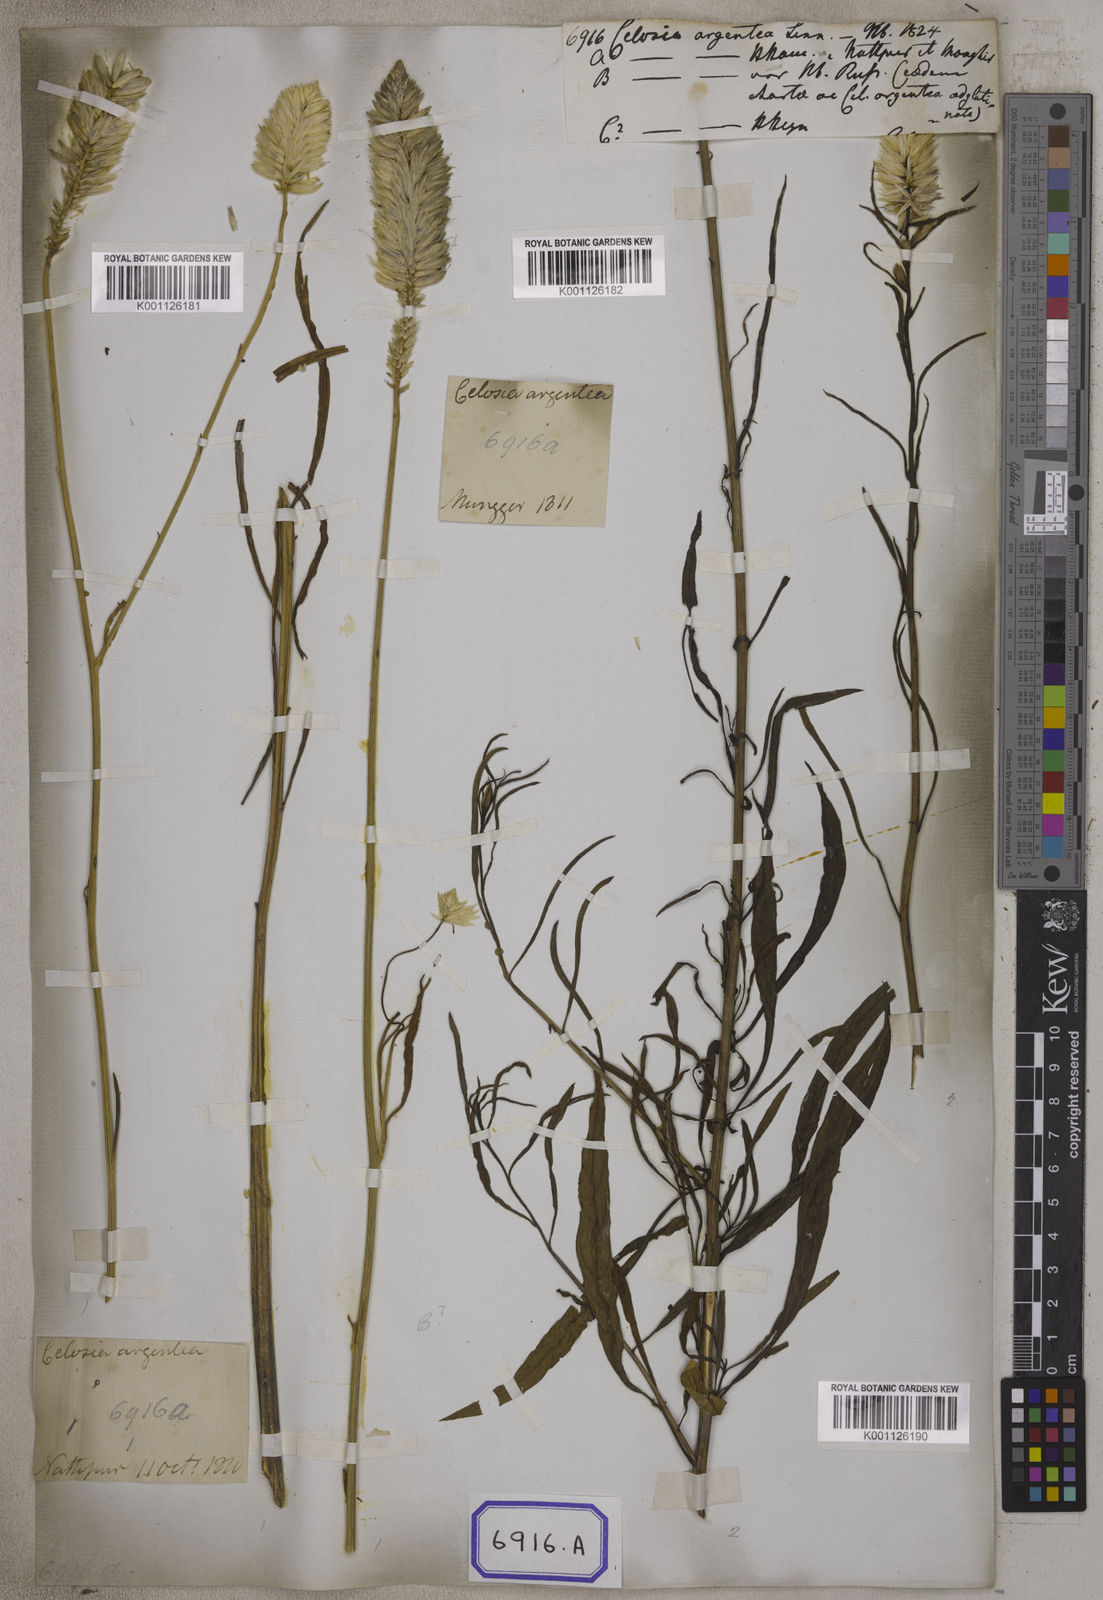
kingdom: Plantae
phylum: Tracheophyta
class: Magnoliopsida
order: Caryophyllales
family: Amaranthaceae
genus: Celosia
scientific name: Celosia argentea
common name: Feather cockscomb
